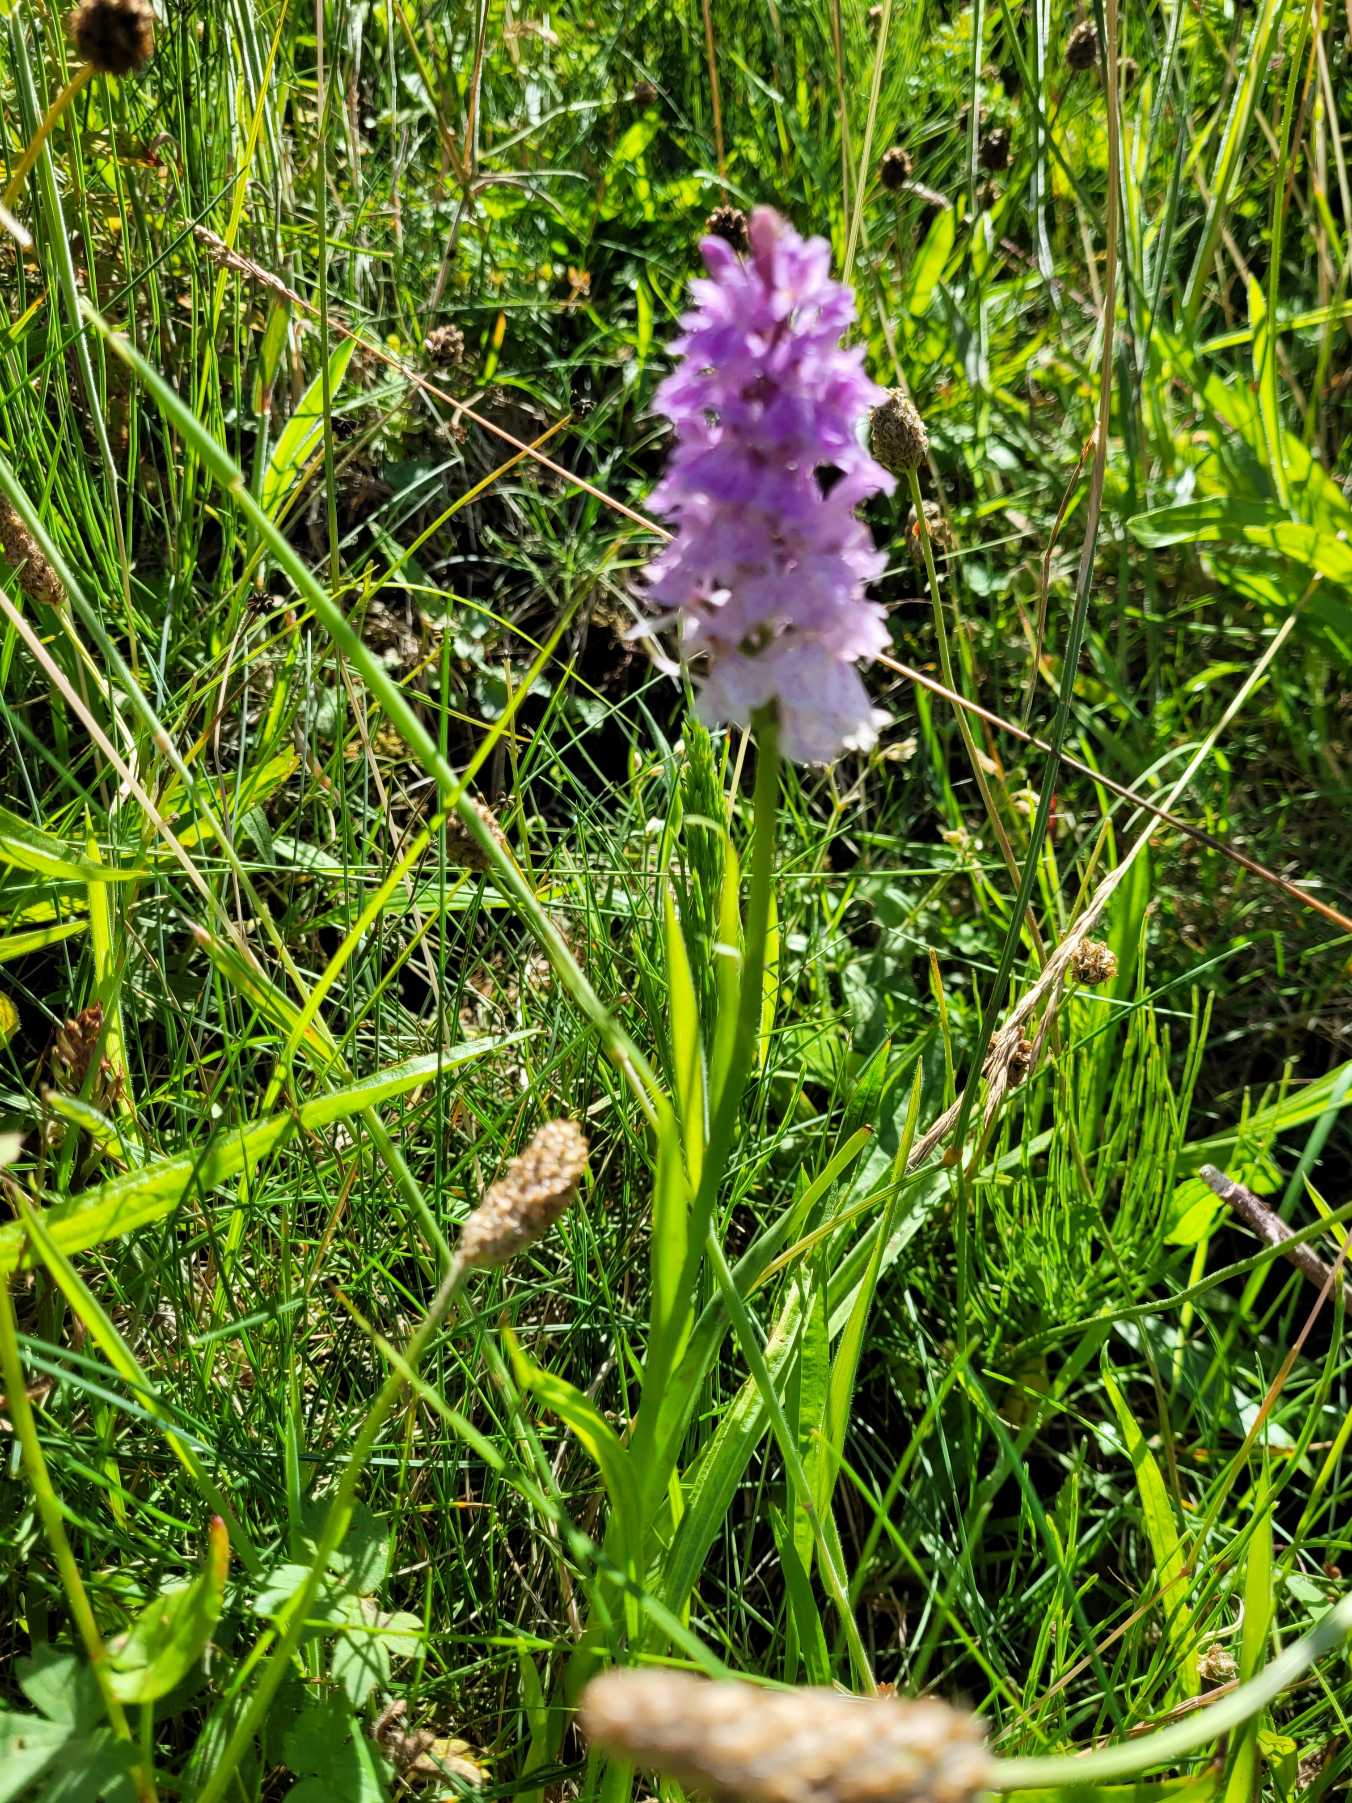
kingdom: Plantae
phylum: Tracheophyta
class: Liliopsida
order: Asparagales
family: Orchidaceae
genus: Dactylorhiza
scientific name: Dactylorhiza maculata
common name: Plettet gøgeurt
